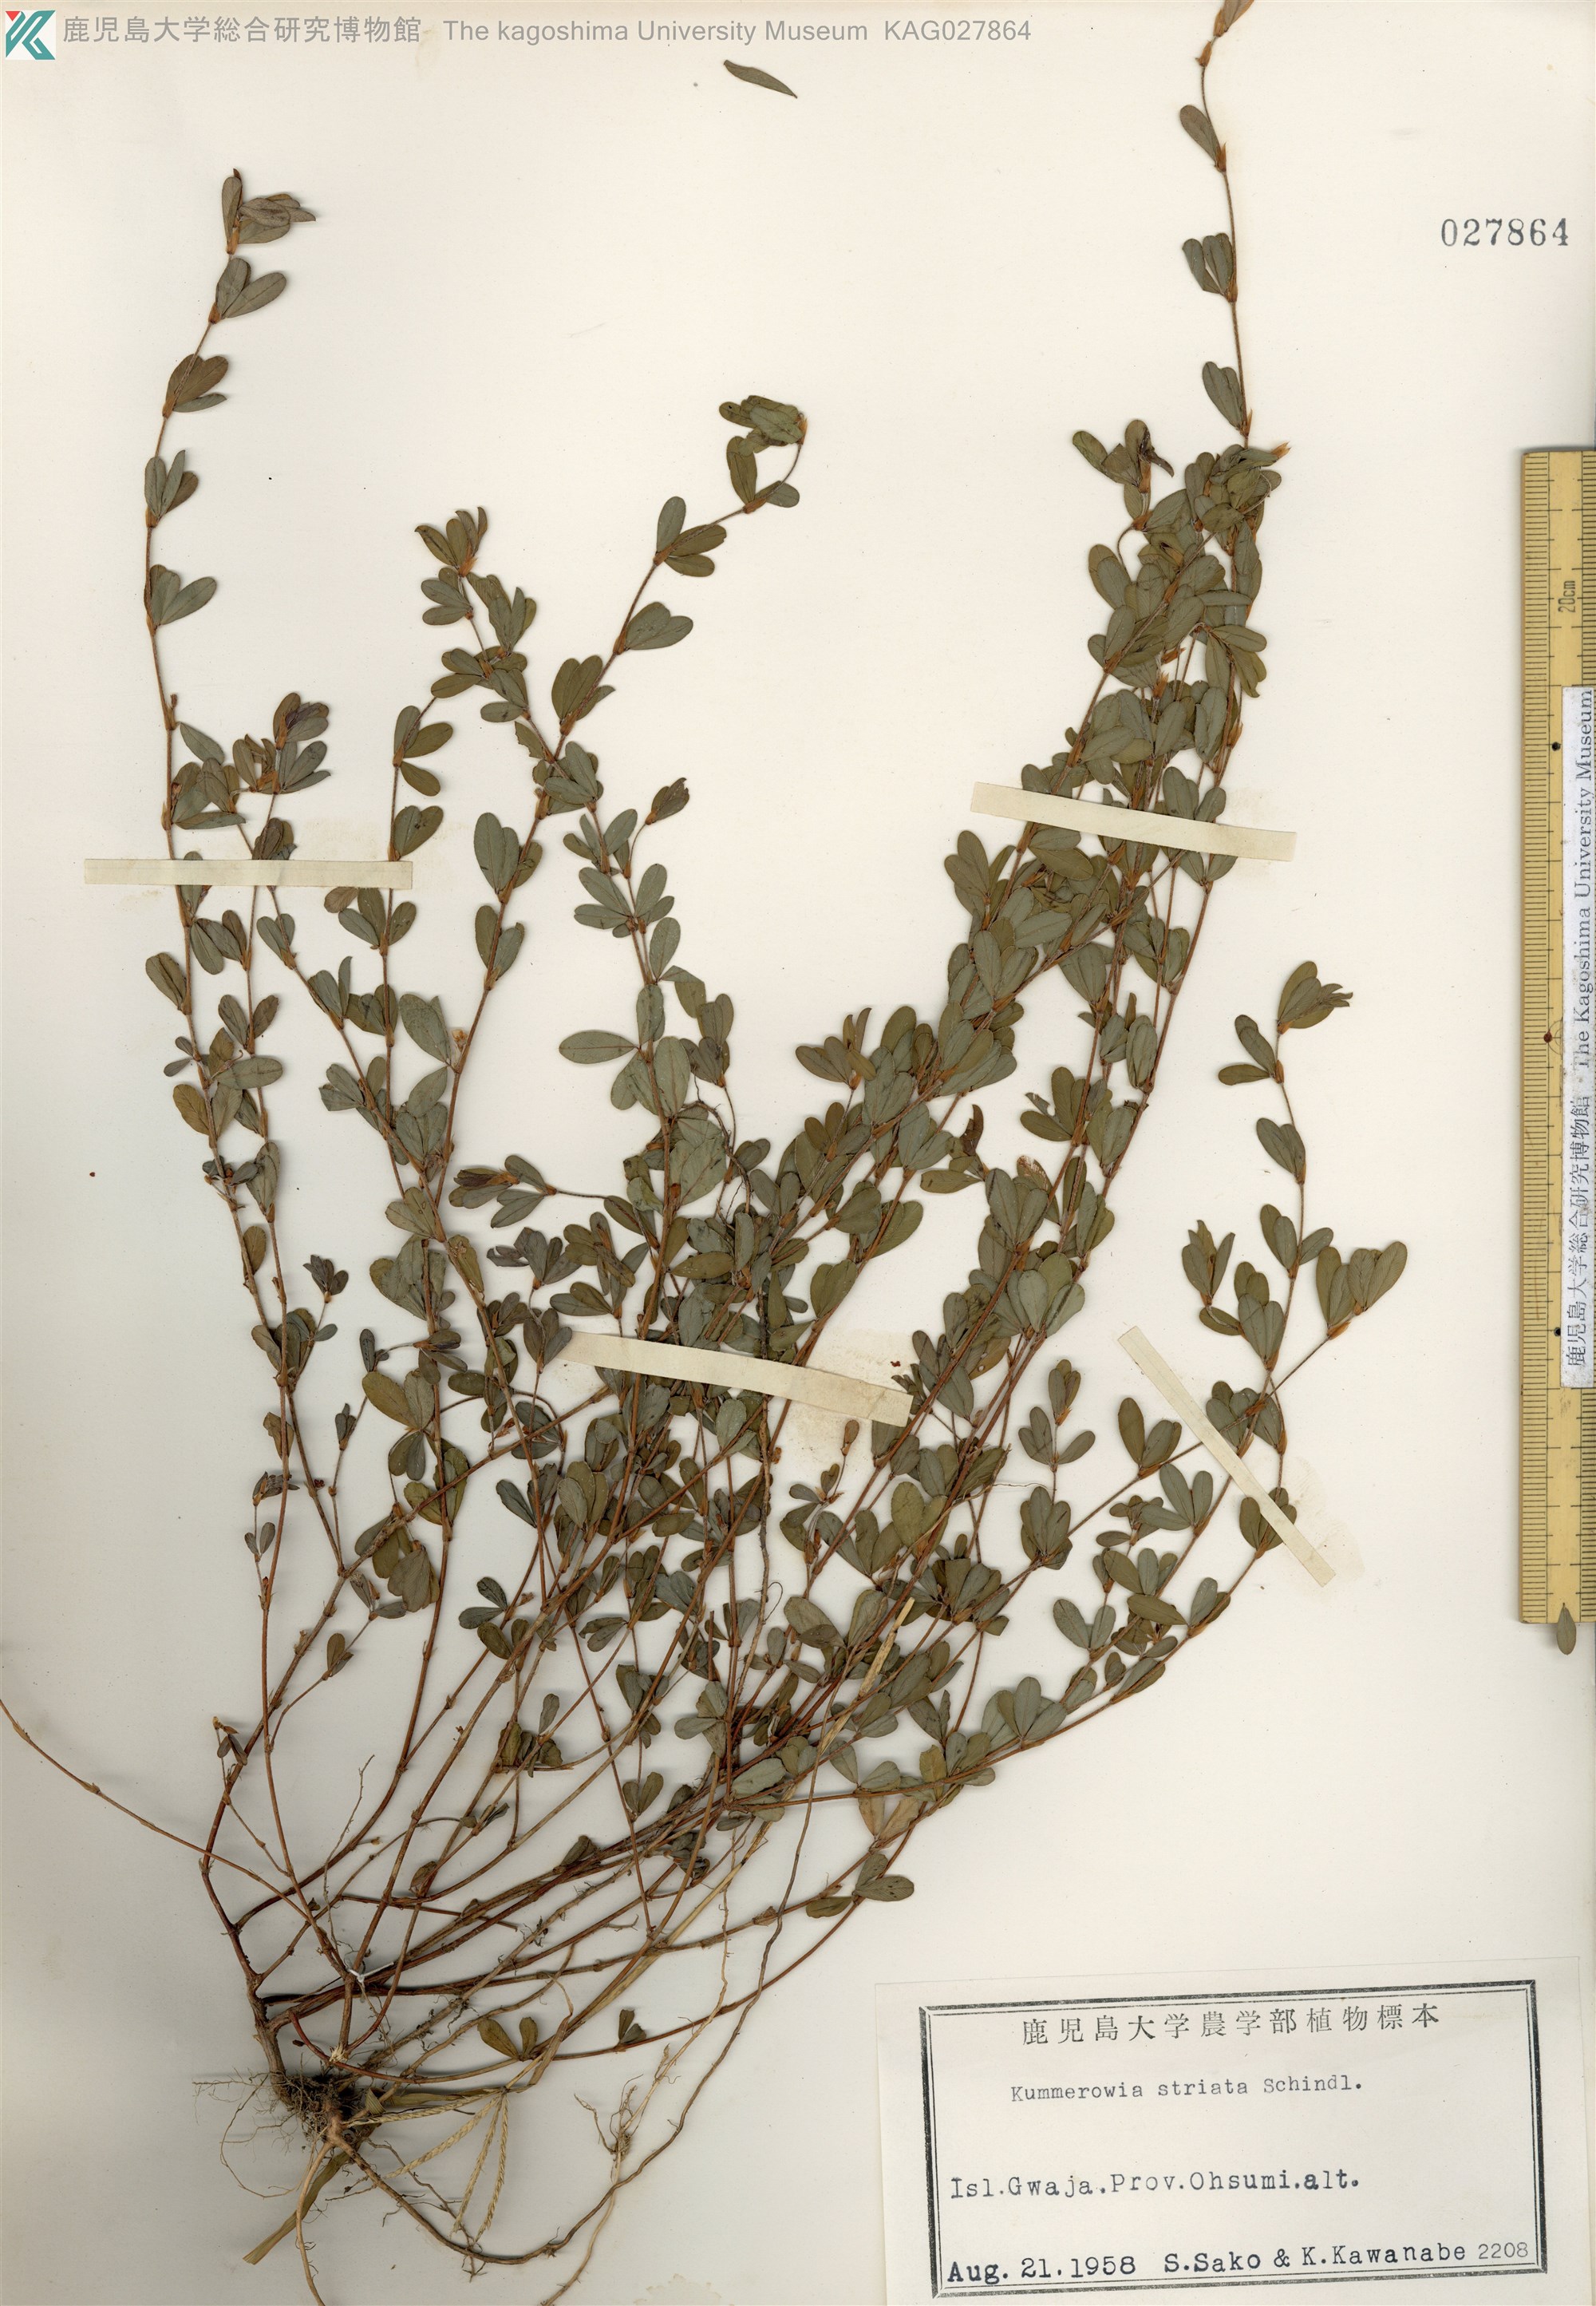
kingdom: Plantae
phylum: Tracheophyta
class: Magnoliopsida
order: Fabales
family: Fabaceae
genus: Kummerowia
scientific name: Kummerowia striata
